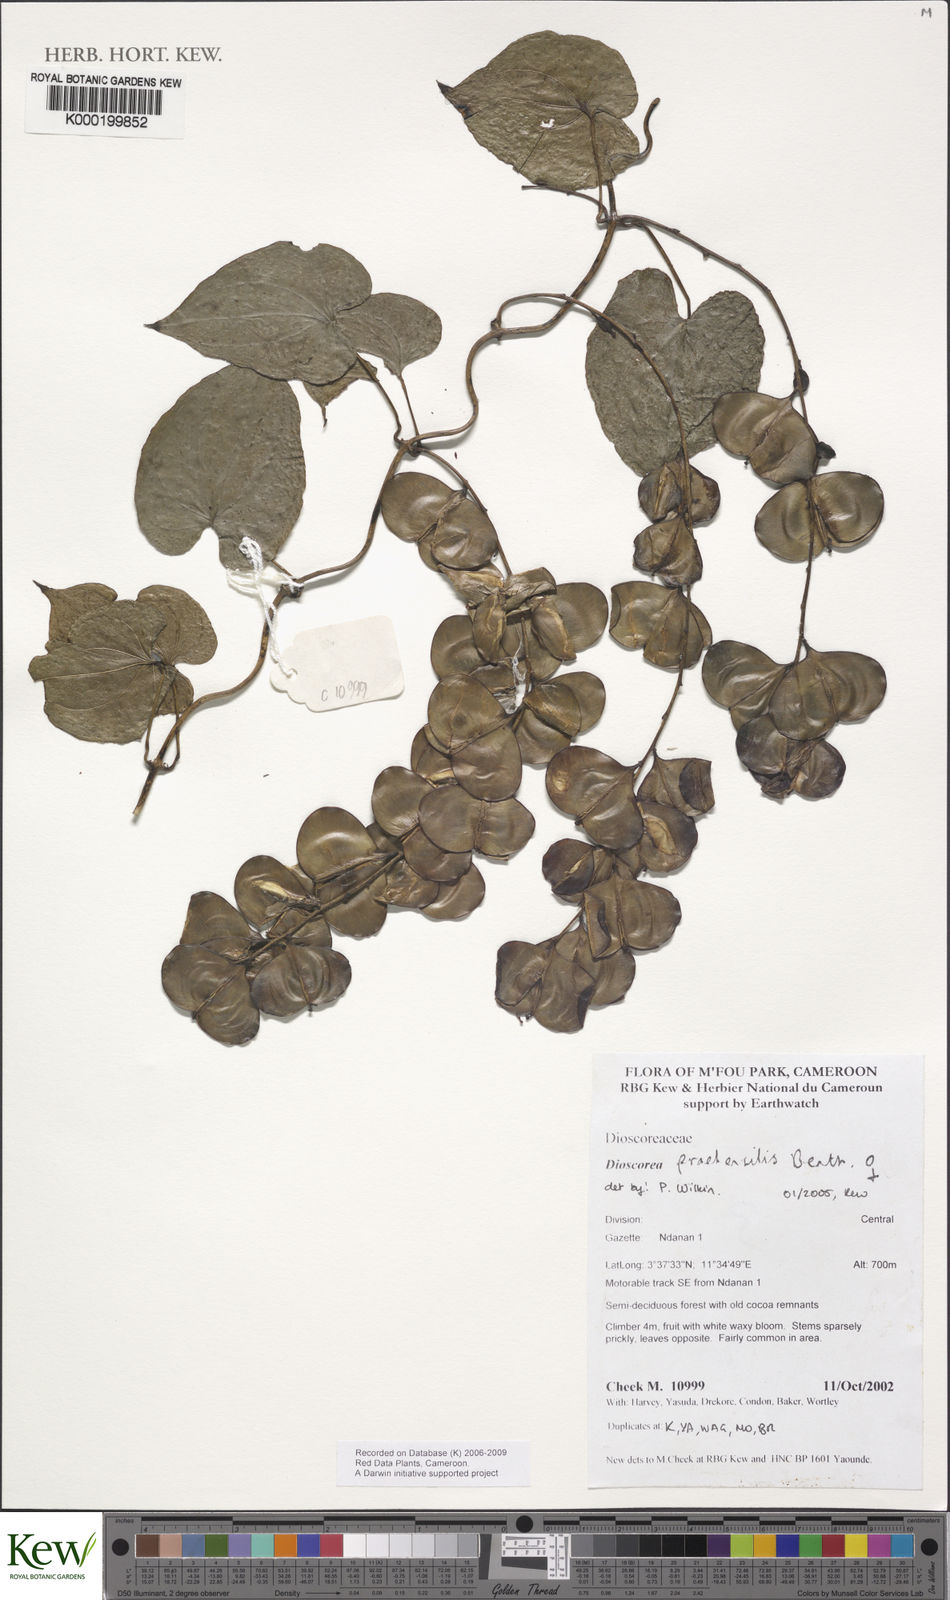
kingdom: Plantae
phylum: Tracheophyta
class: Liliopsida
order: Dioscoreales
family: Dioscoreaceae
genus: Dioscorea
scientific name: Dioscorea praehensilis
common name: Bush yam
